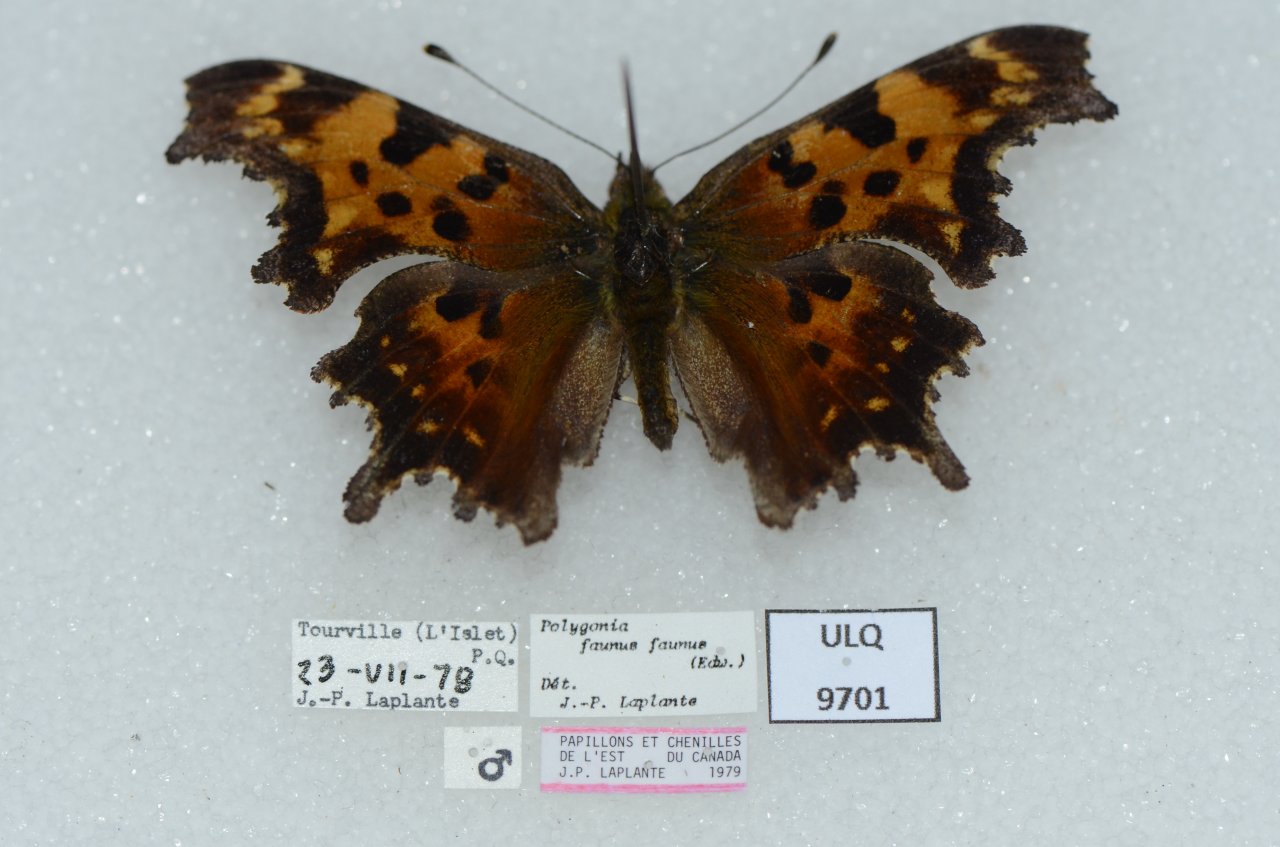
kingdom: Animalia
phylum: Arthropoda
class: Insecta
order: Lepidoptera
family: Nymphalidae
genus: Polygonia
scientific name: Polygonia faunus
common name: Green Comma
